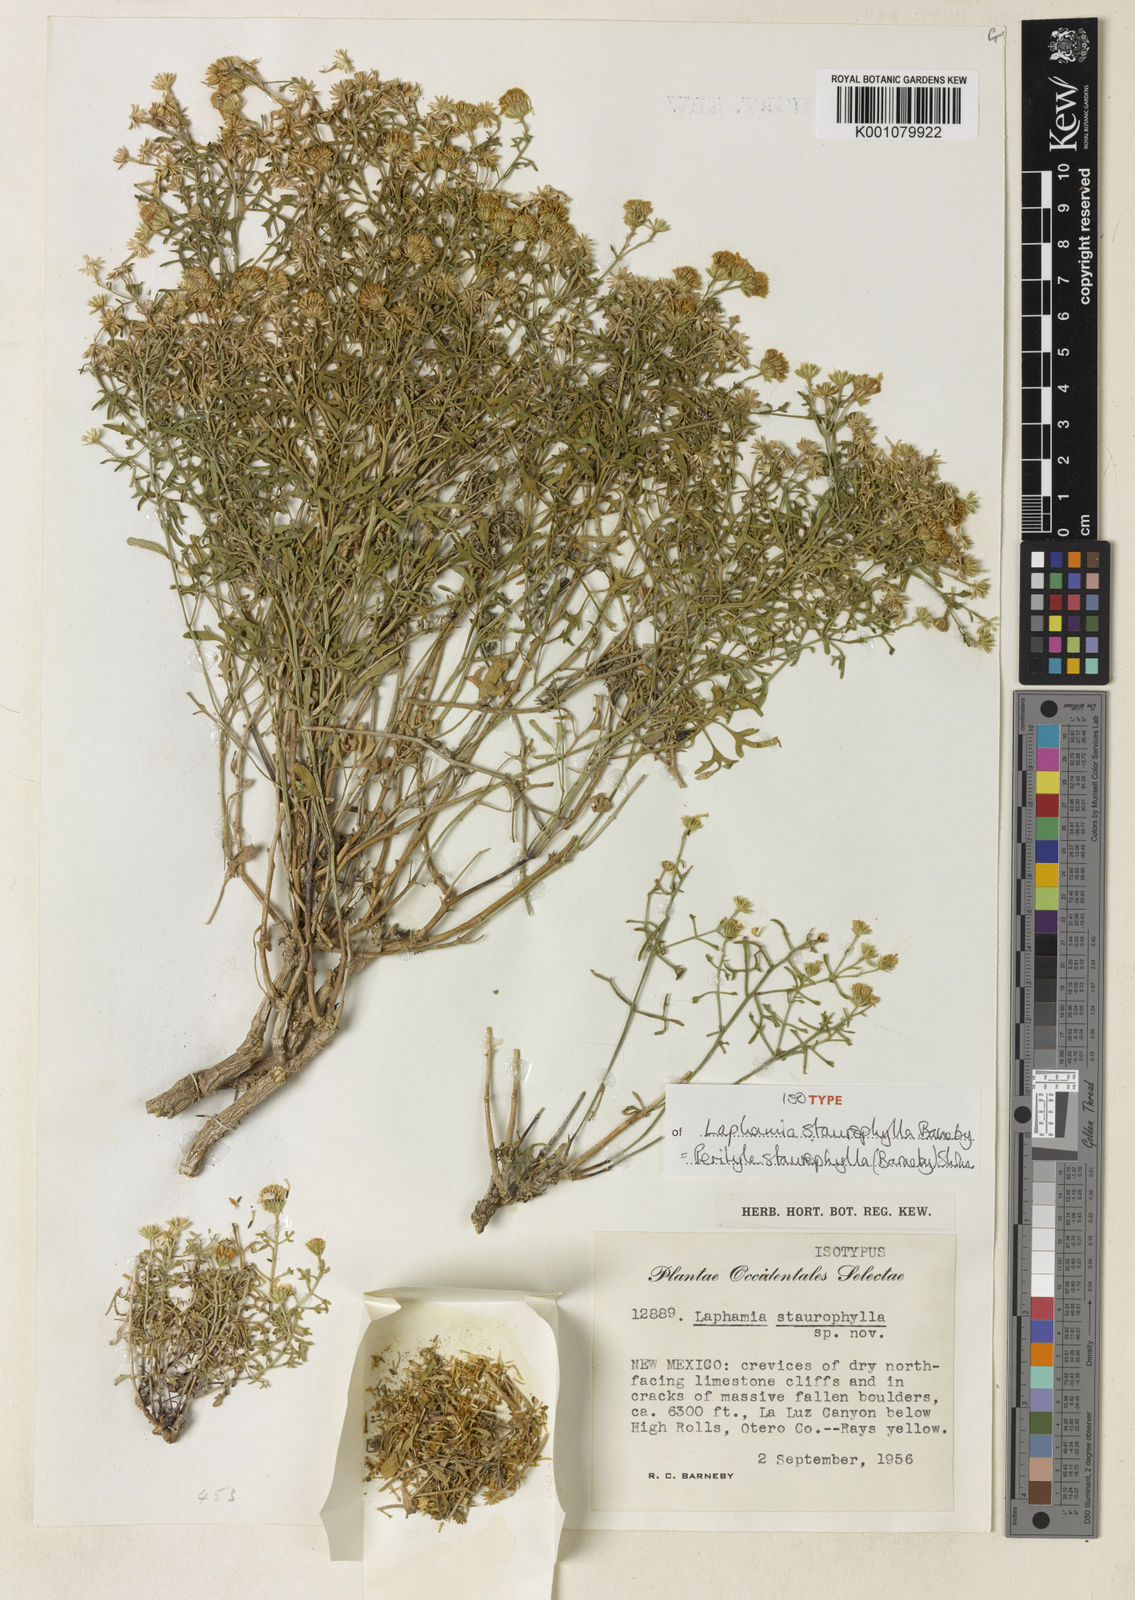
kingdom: Plantae
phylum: Tracheophyta
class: Magnoliopsida
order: Asterales
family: Asteraceae
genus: Laphamia
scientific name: Laphamia staurophylla
